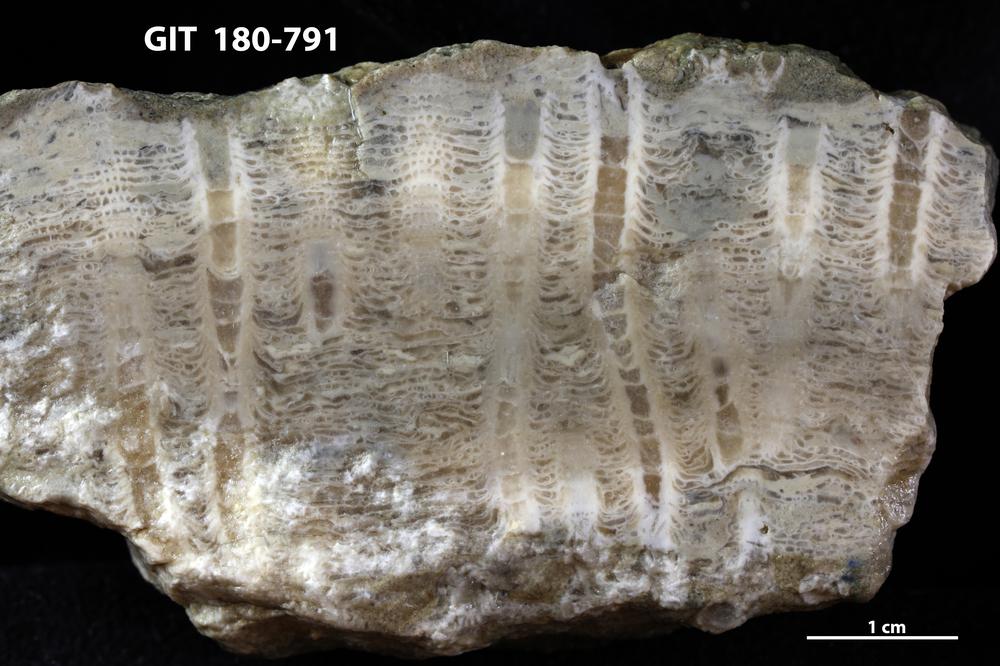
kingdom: Animalia
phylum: Cnidaria
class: Anthozoa
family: Favositidae
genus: Calapoecia
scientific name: Calapoecia
